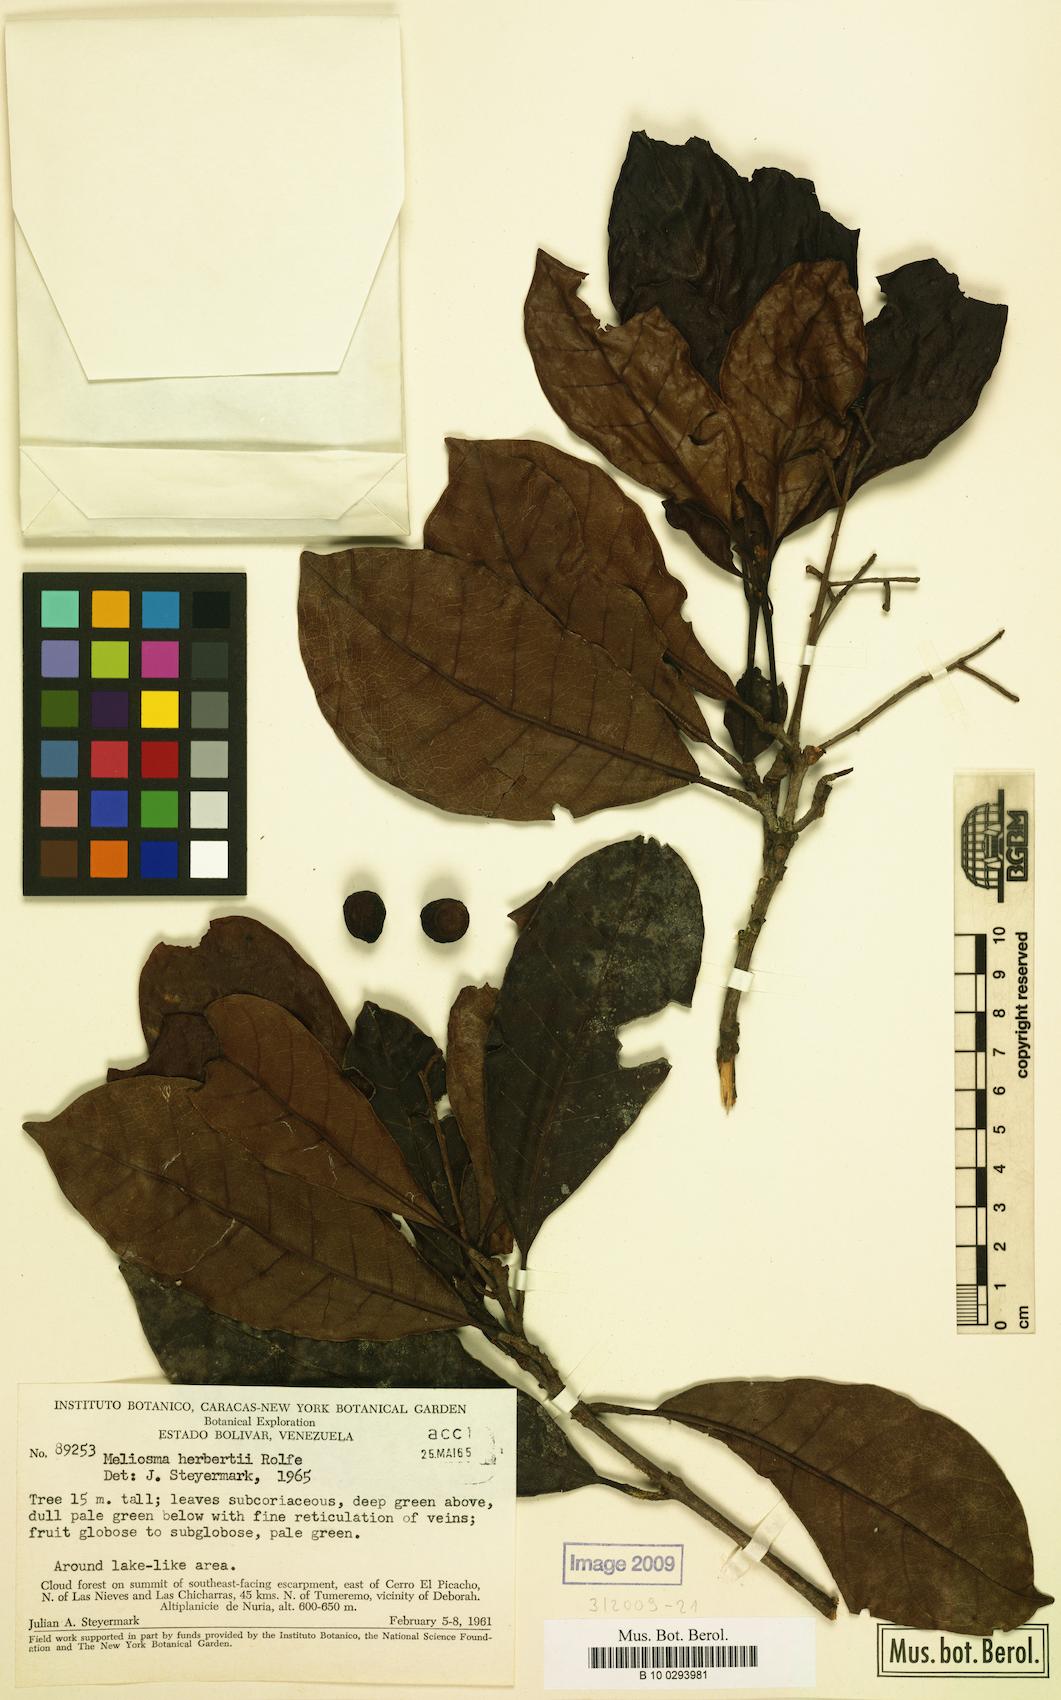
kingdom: Plantae
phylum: Tracheophyta
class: Magnoliopsida
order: Proteales
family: Sabiaceae
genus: Meliosma
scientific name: Meliosma herbertii
